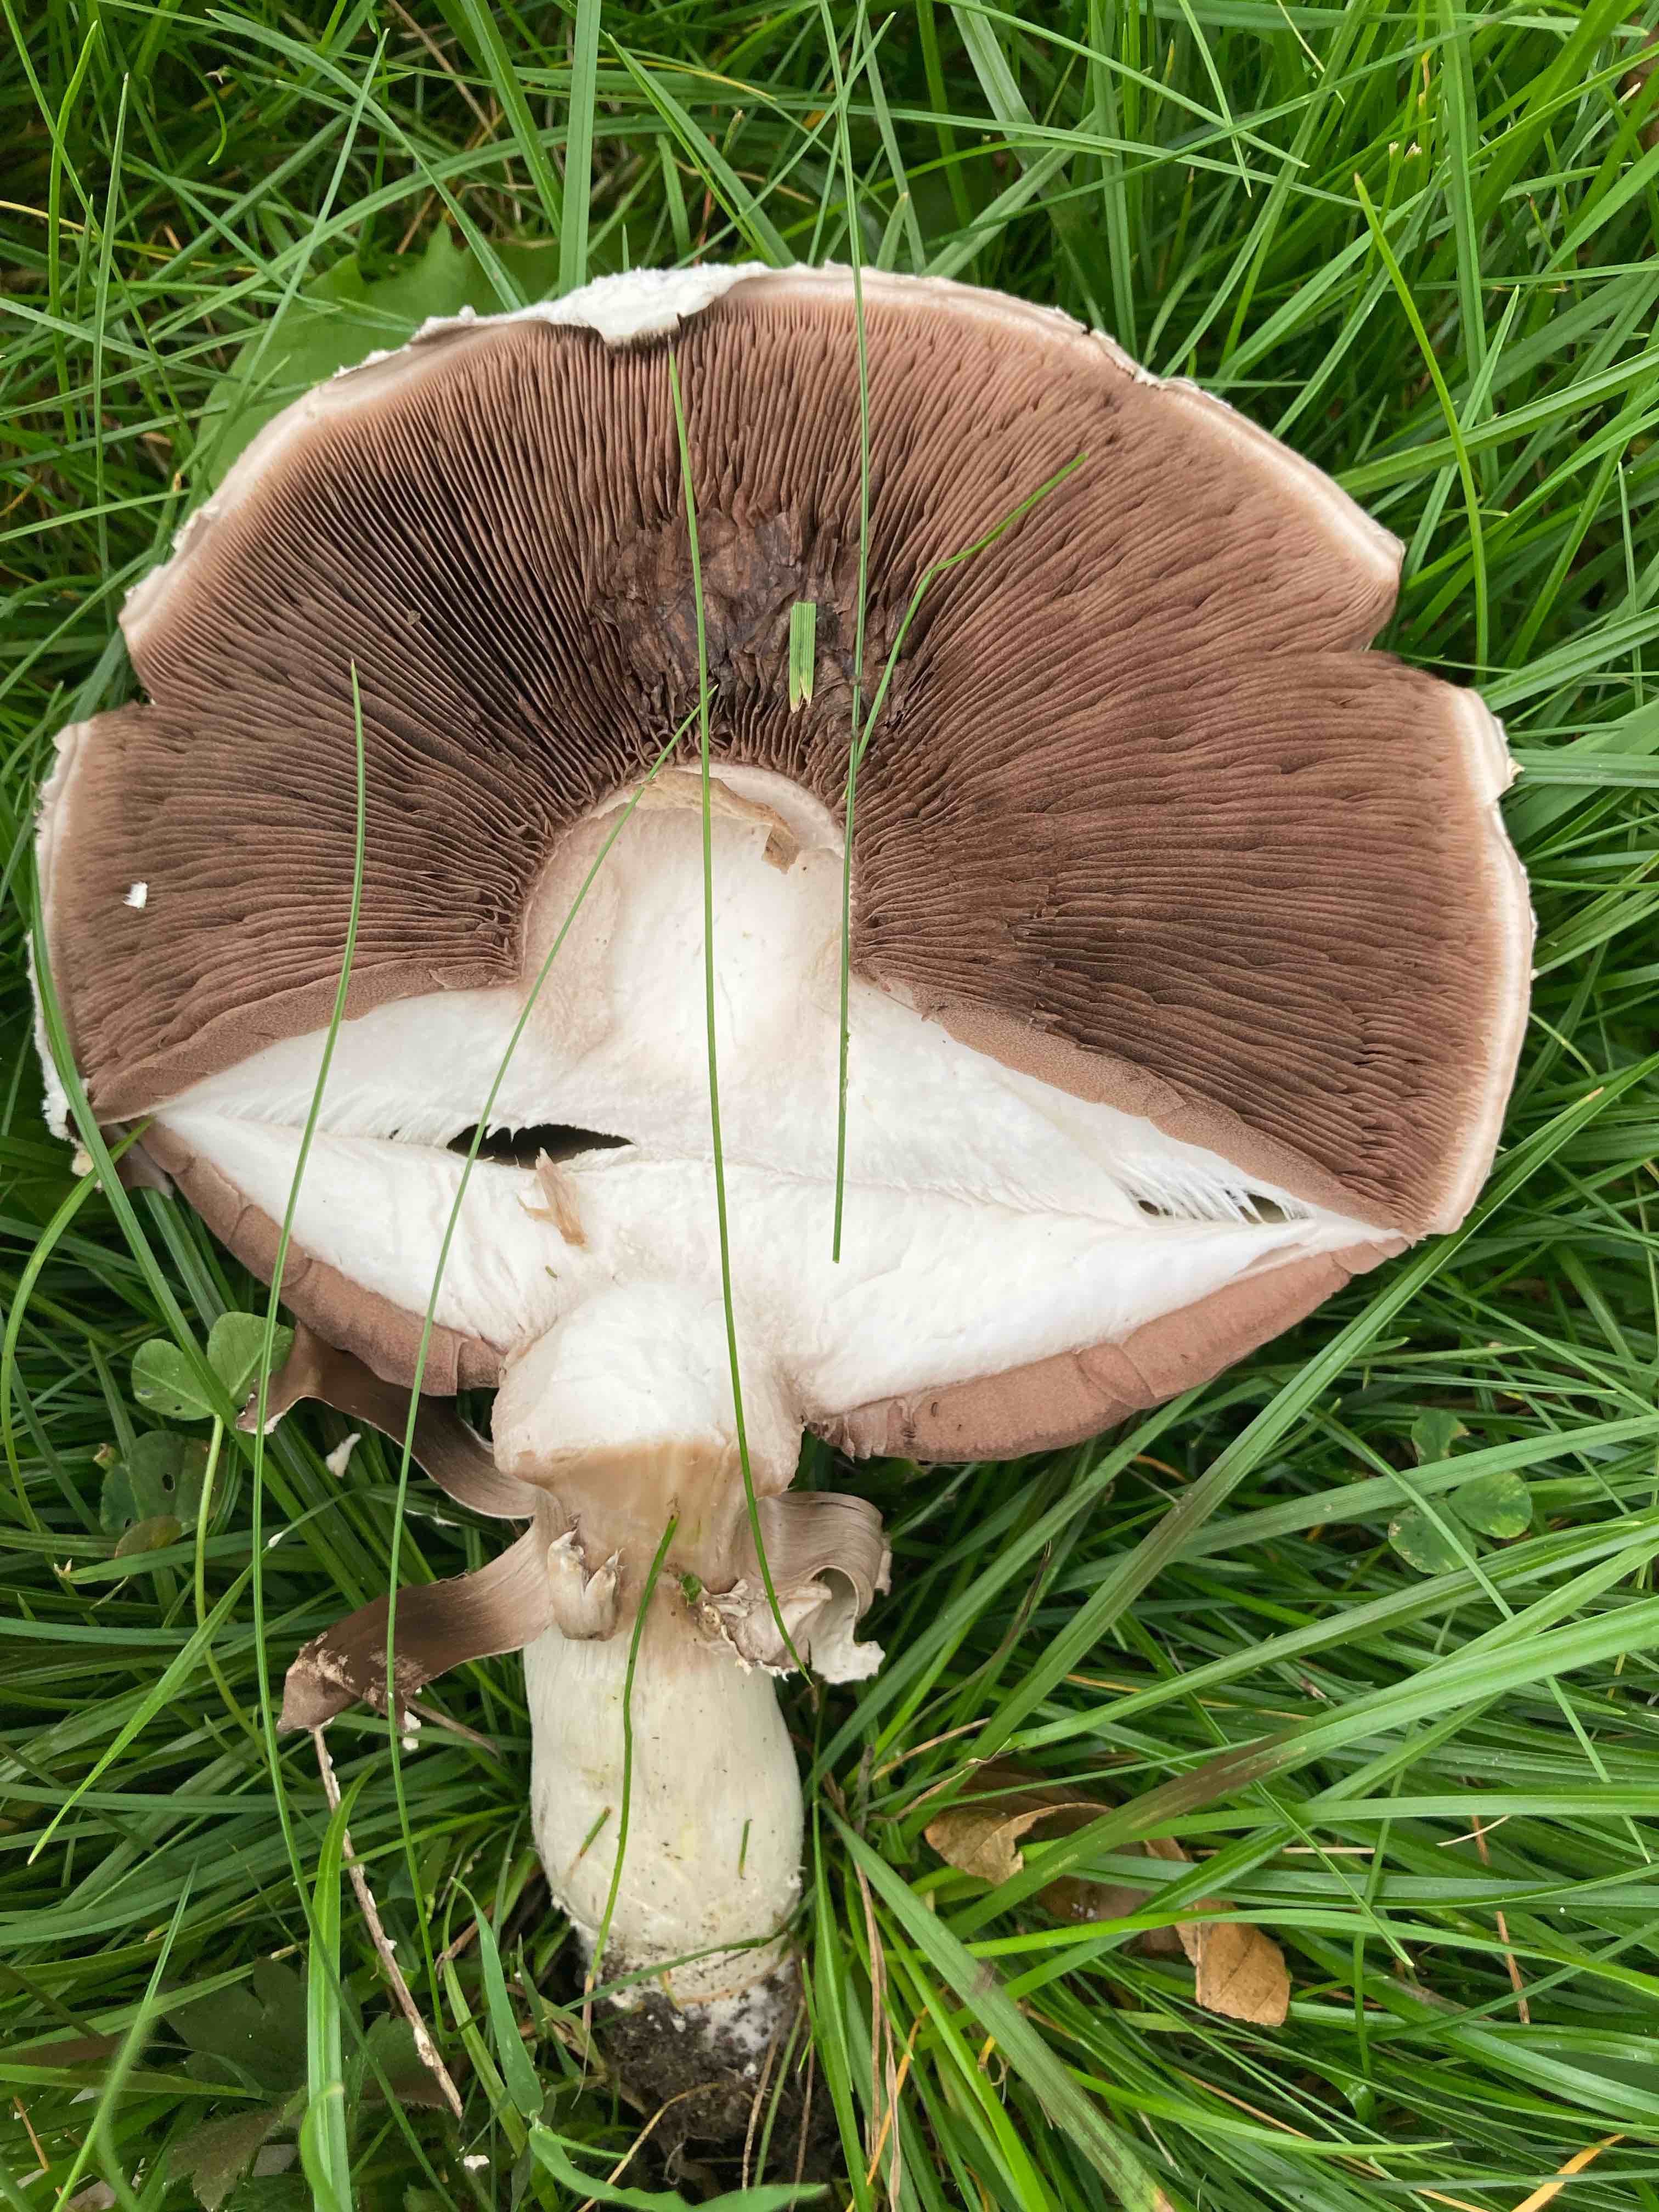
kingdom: Fungi
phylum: Basidiomycota
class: Agaricomycetes
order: Agaricales
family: Agaricaceae
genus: Agaricus
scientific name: Agaricus
